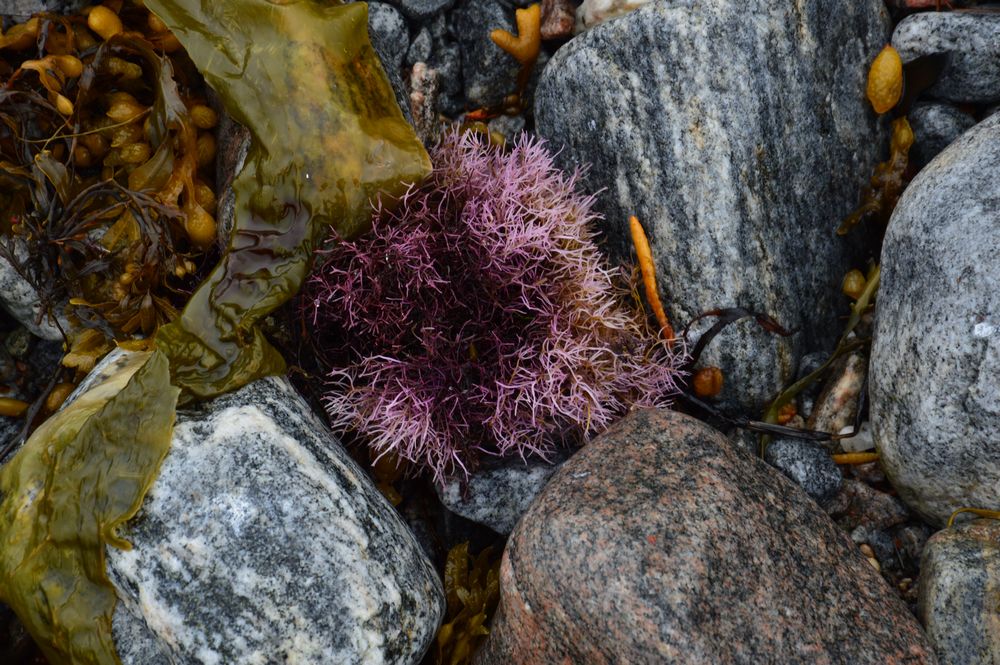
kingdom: Plantae
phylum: Rhodophyta
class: Florideophyceae
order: Ahnfeltiales
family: Ahnfeltiaceae
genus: Ahnfeltia
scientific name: Ahnfeltia plicata
